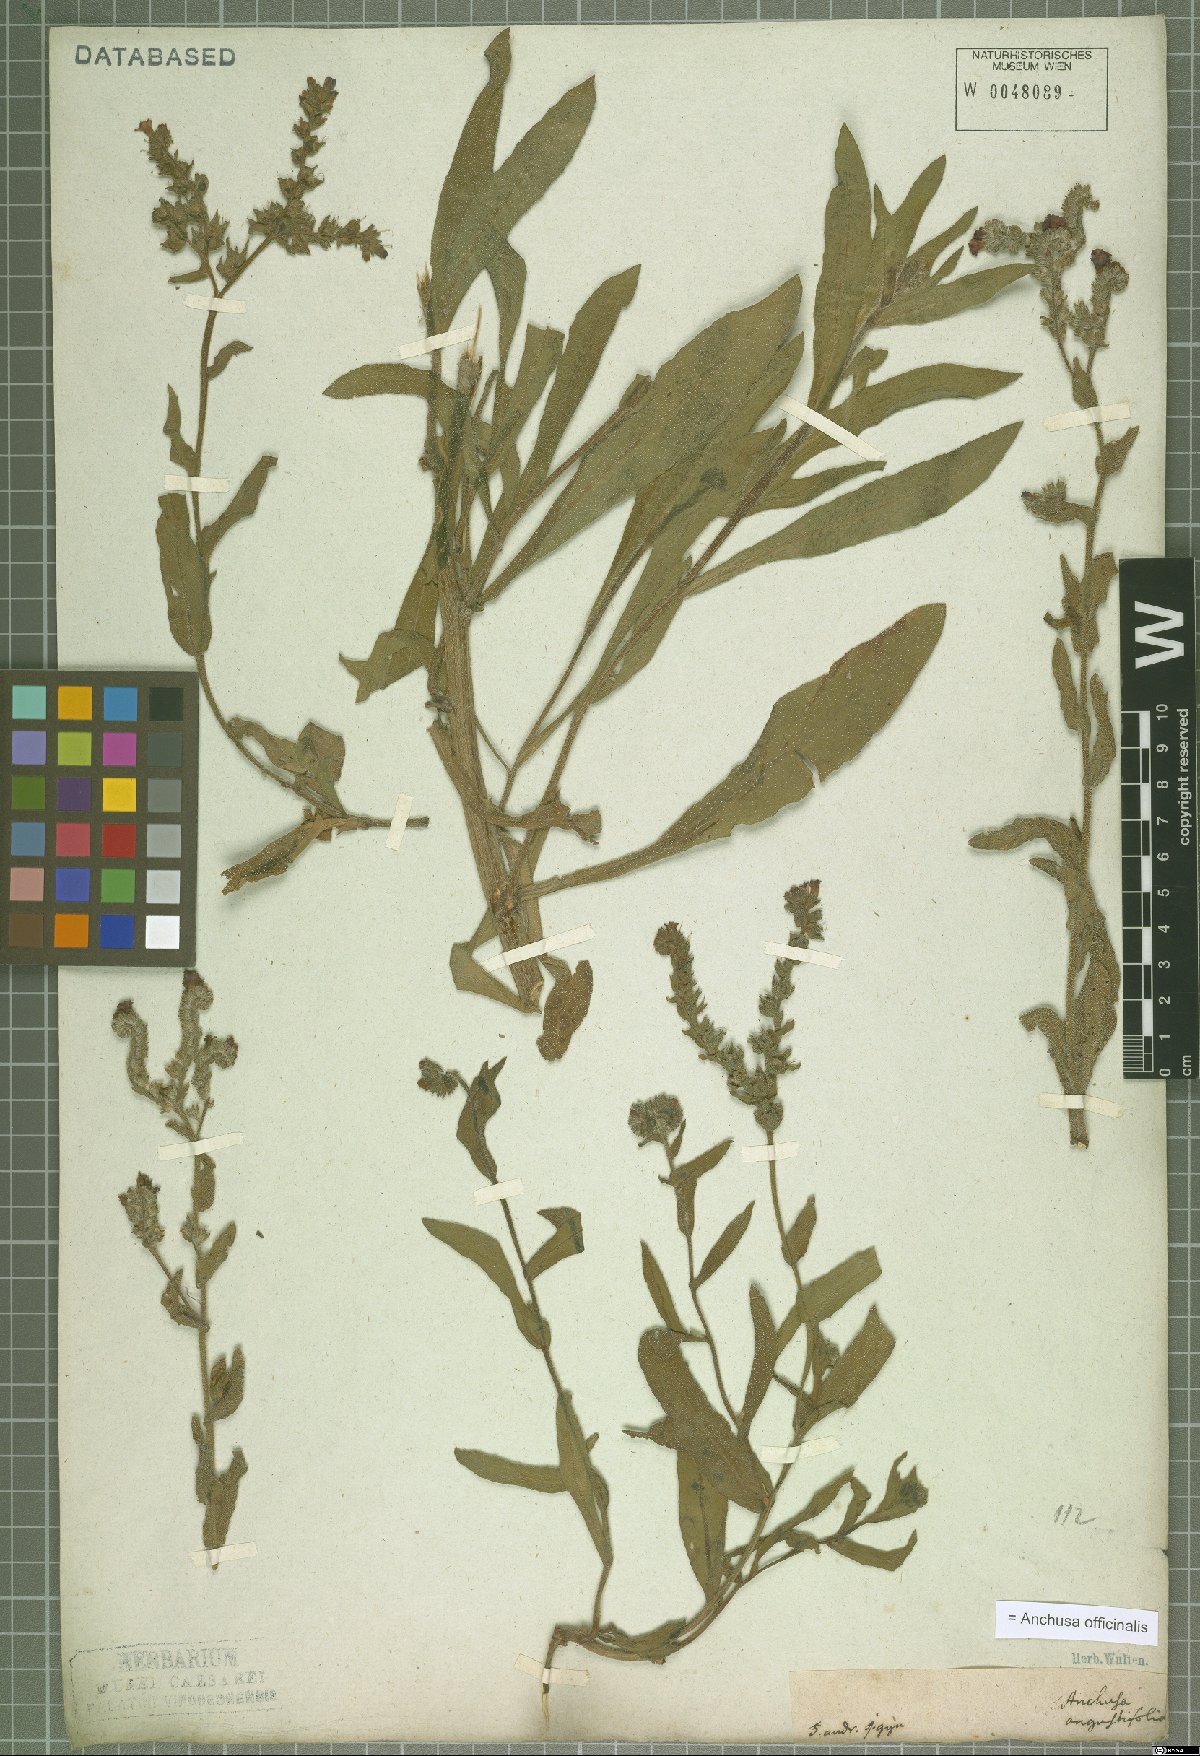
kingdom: Plantae
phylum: Tracheophyta
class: Magnoliopsida
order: Boraginales
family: Boraginaceae
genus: Anchusa
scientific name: Anchusa officinalis
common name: Alkanet
